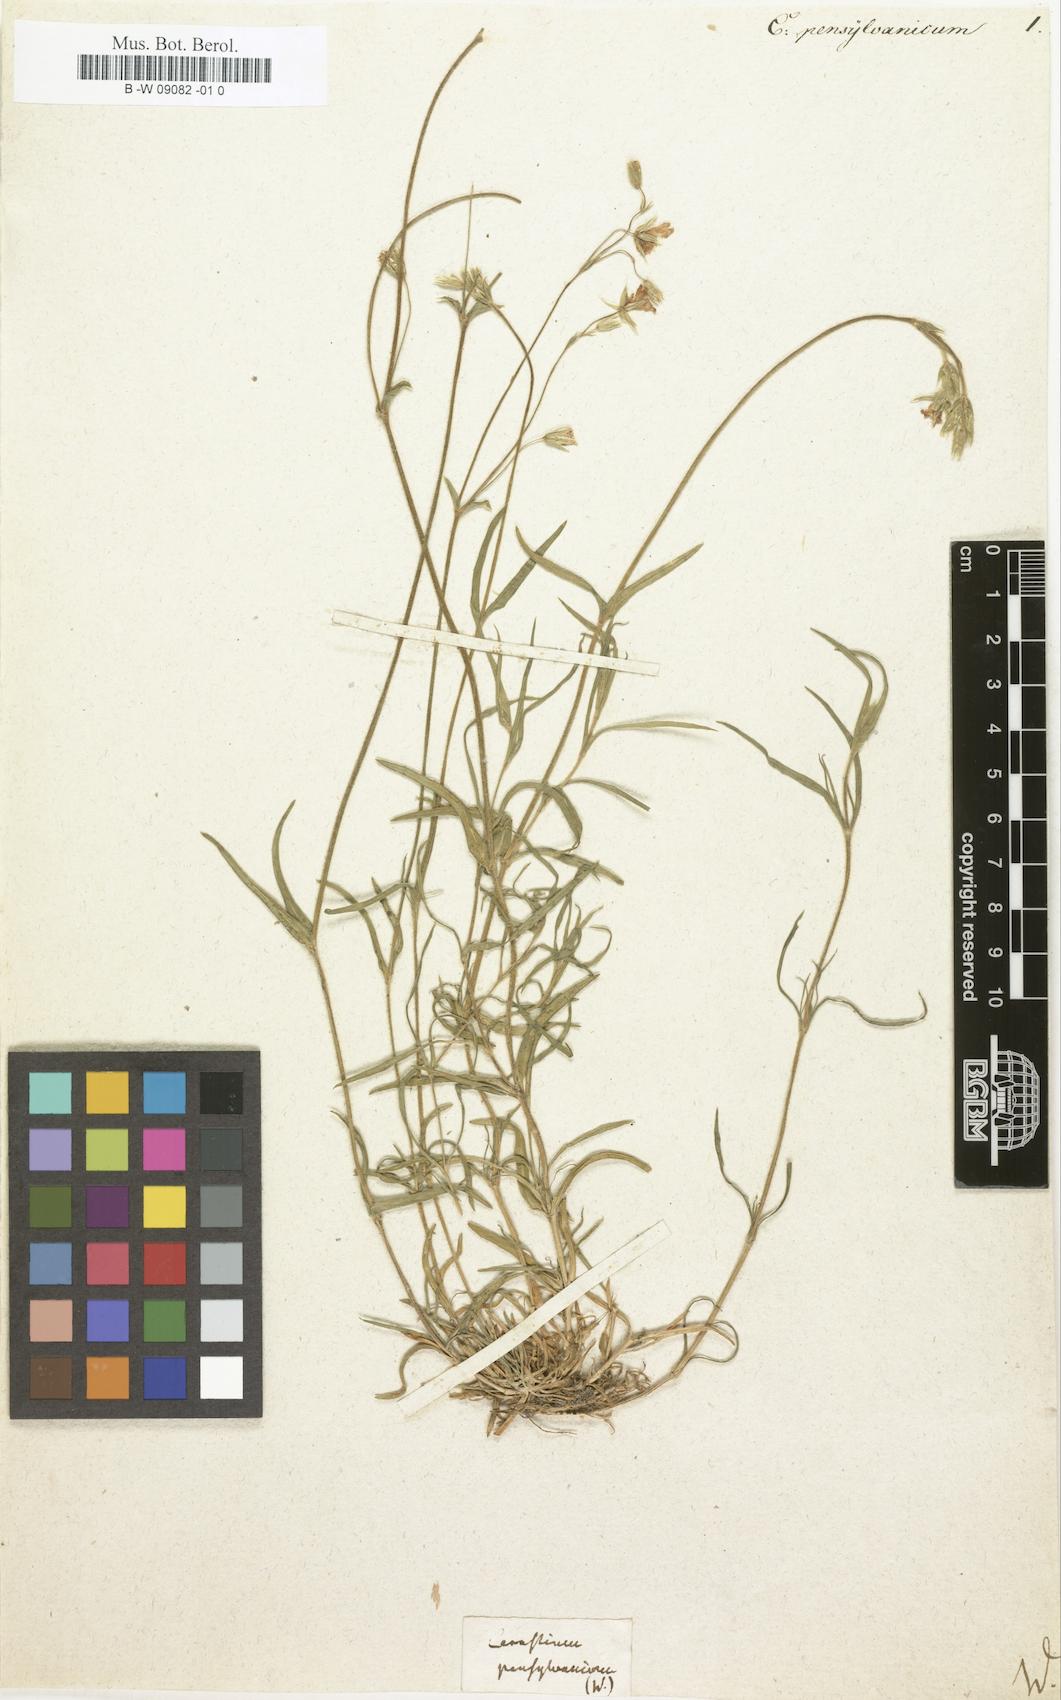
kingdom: Plantae
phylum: Tracheophyta
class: Magnoliopsida
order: Caryophyllales
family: Caryophyllaceae
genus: Cerastium
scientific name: Cerastium
